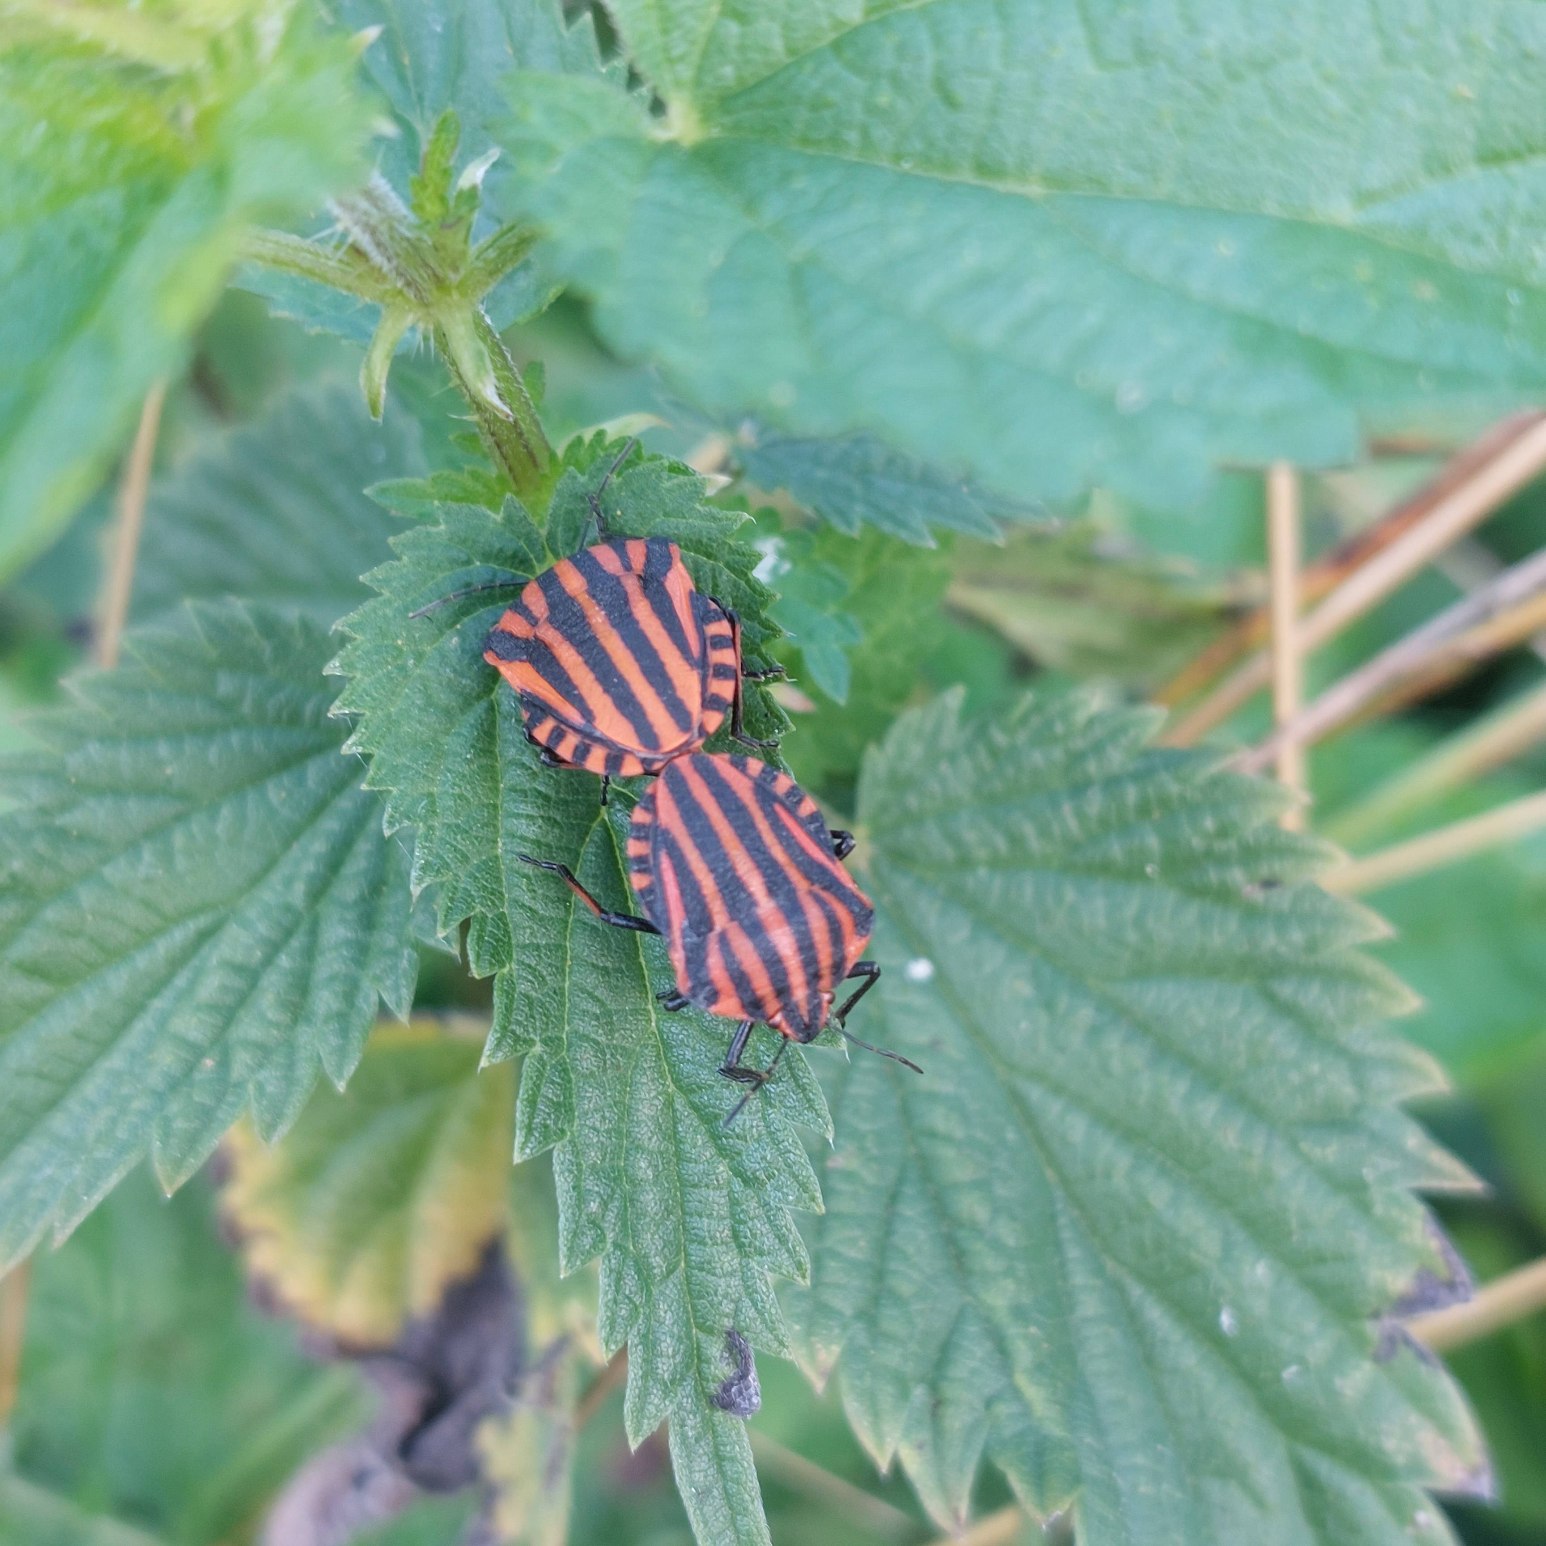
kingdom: Animalia
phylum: Arthropoda
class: Insecta
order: Hemiptera
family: Pentatomidae
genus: Graphosoma
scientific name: Graphosoma italicum
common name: Stribetæge
